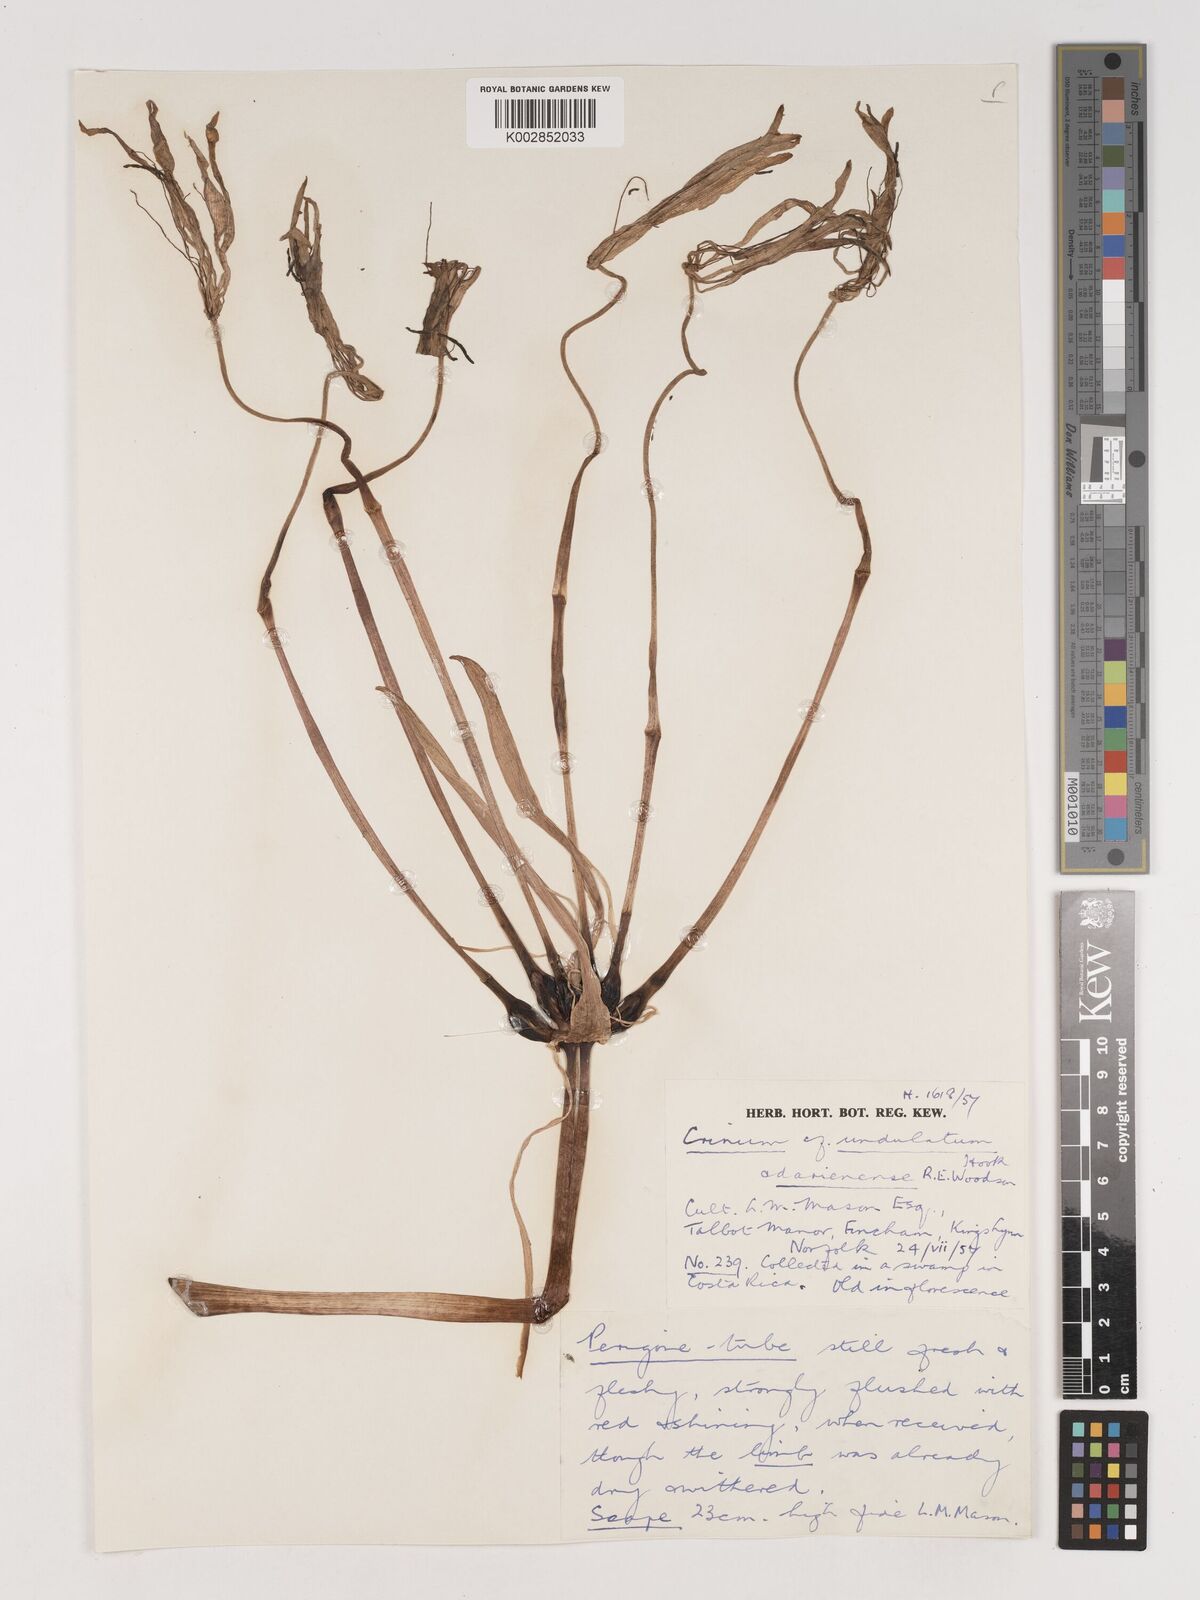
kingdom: Plantae
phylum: Tracheophyta
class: Liliopsida
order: Asparagales
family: Amaryllidaceae
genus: Crinum
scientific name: Crinum undulatum
